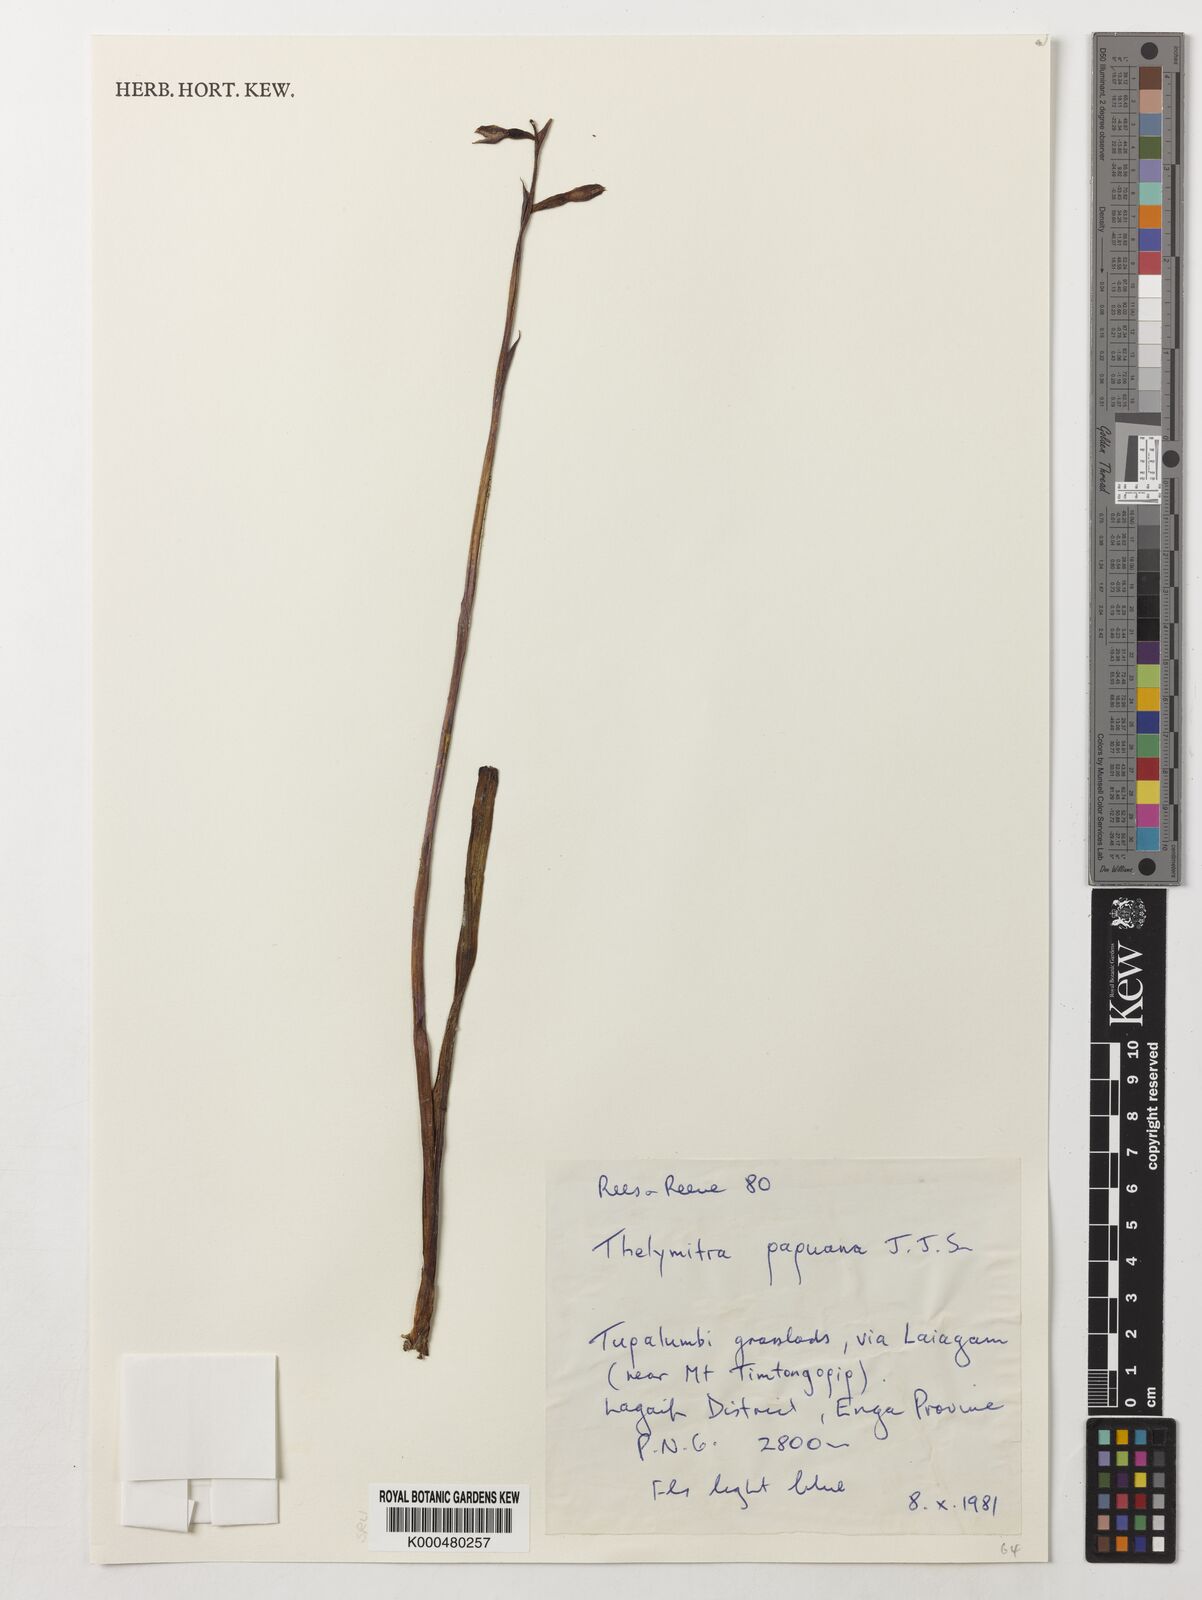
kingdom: Plantae
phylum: Tracheophyta
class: Liliopsida
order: Asparagales
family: Orchidaceae
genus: Thelymitra
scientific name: Thelymitra papuana
